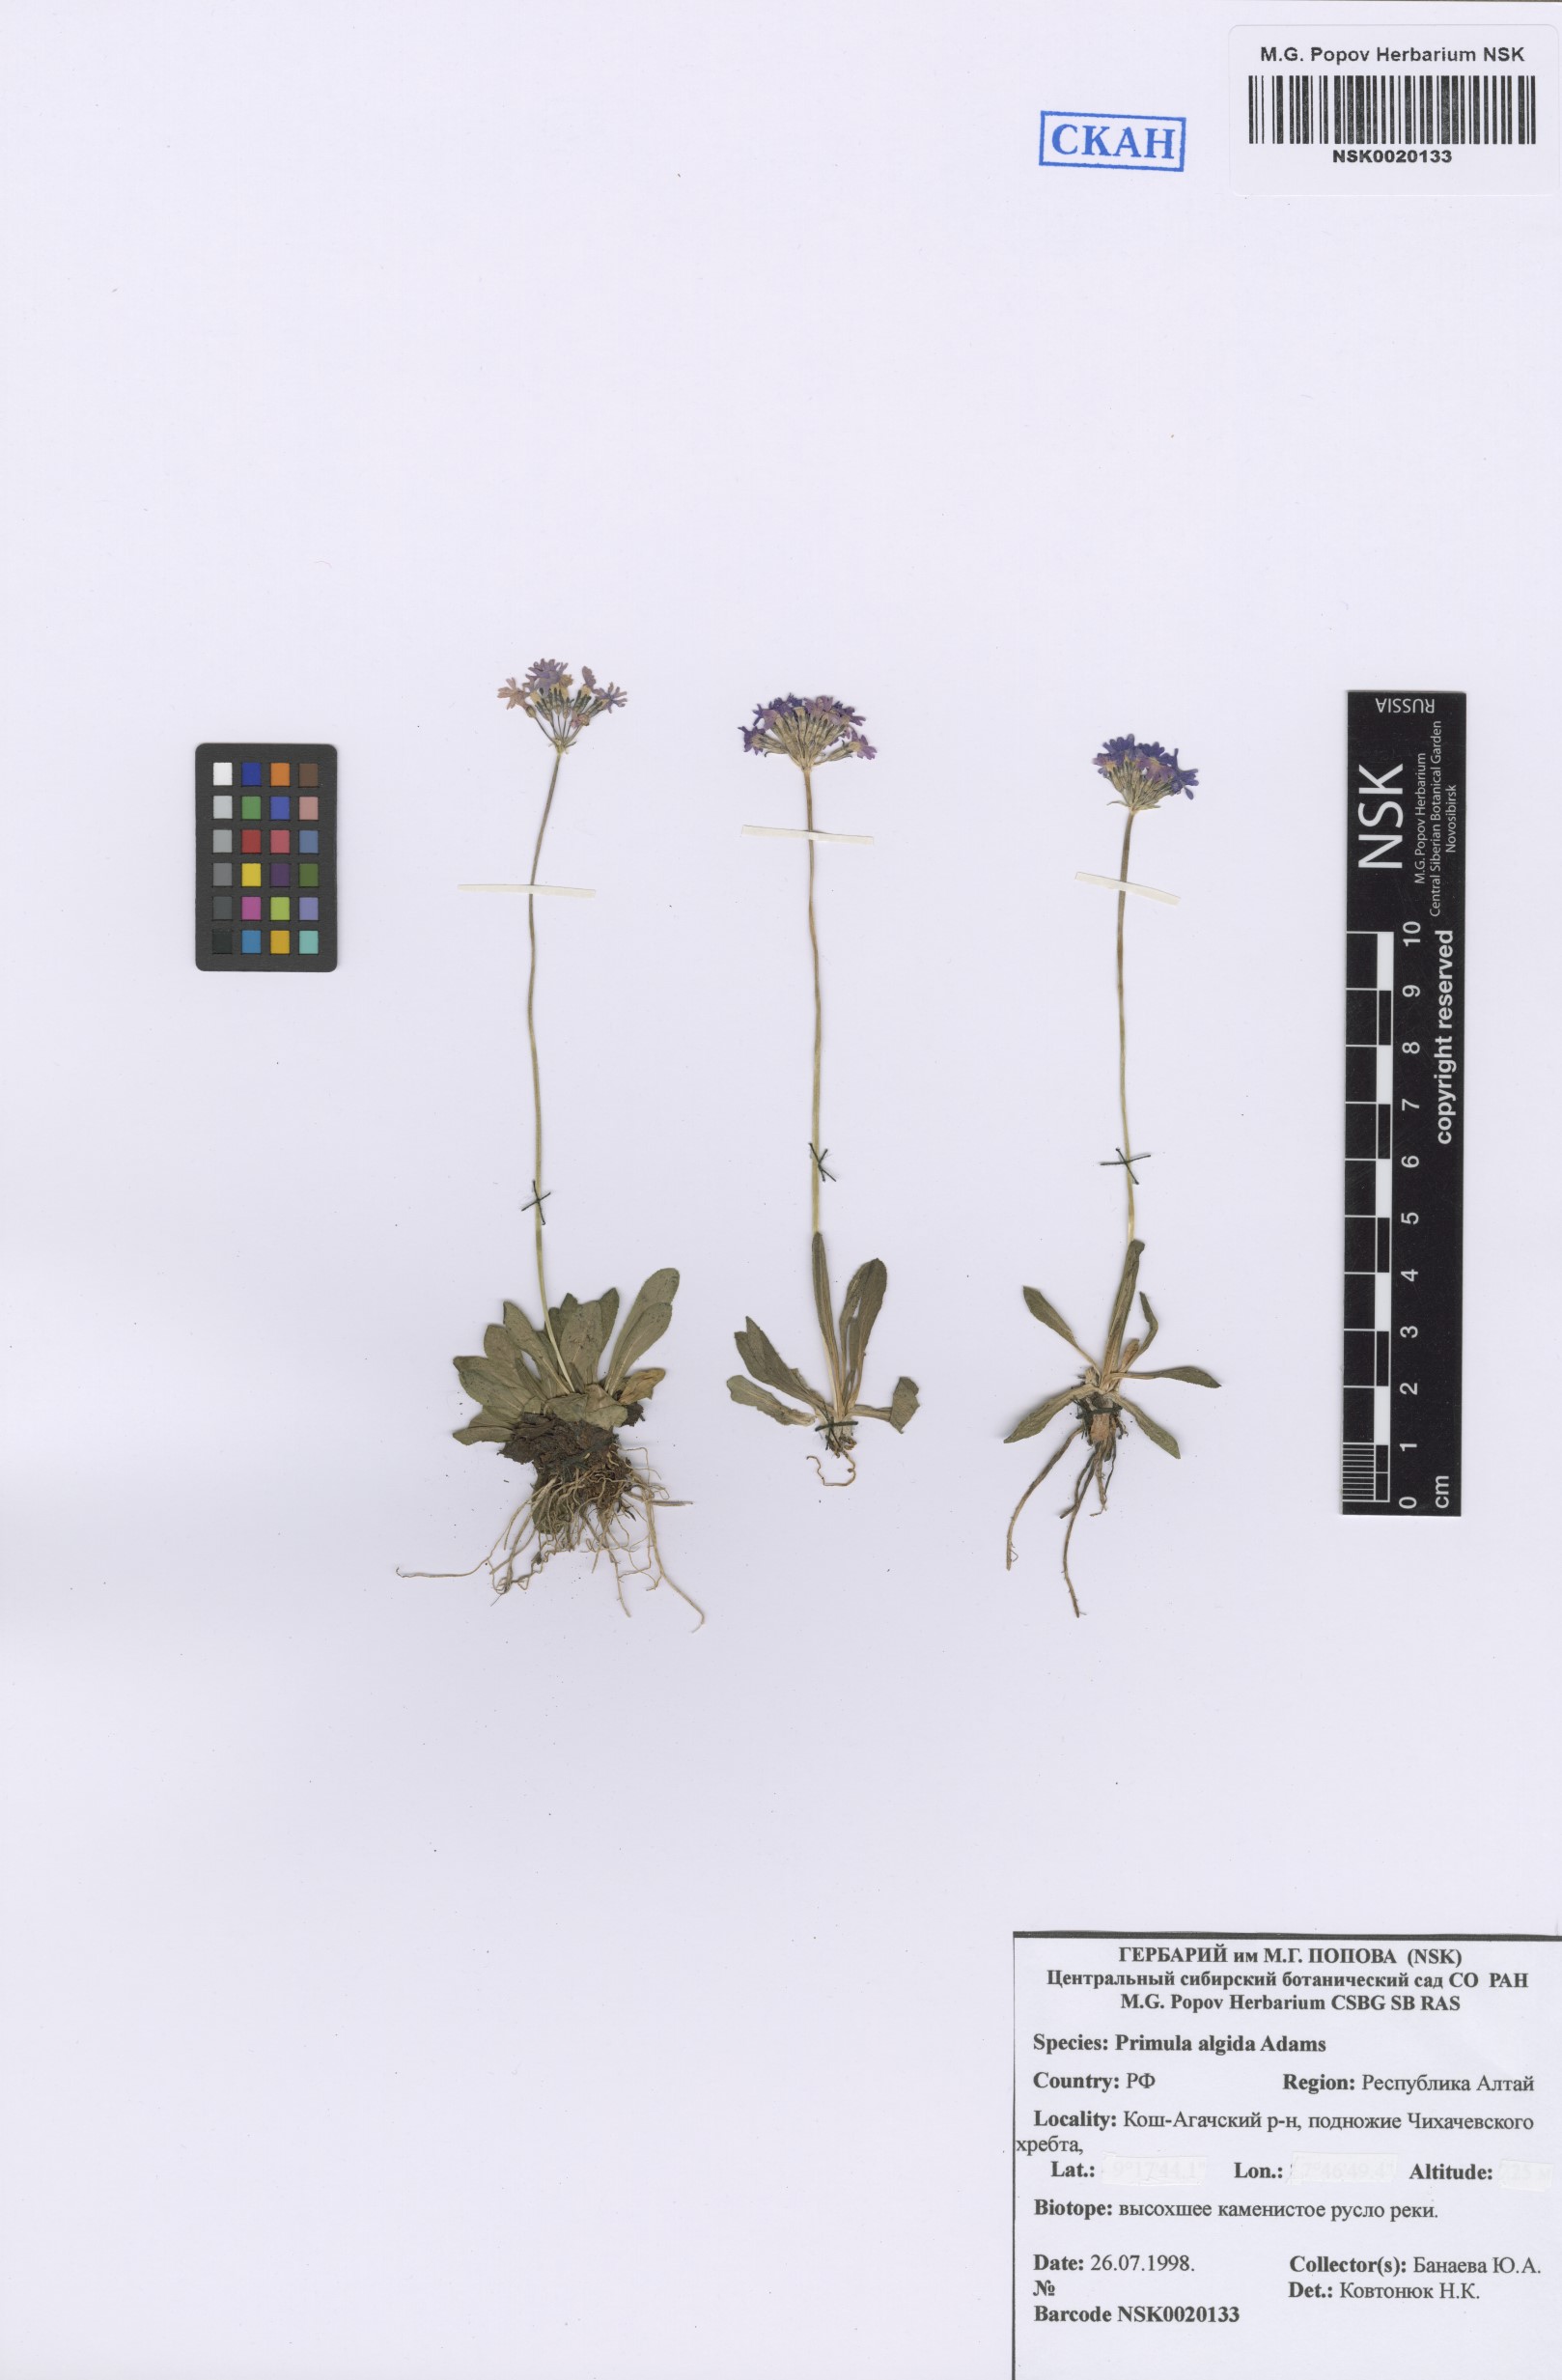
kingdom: Plantae
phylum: Tracheophyta
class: Magnoliopsida
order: Ericales
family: Primulaceae
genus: Primula
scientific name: Primula algida
